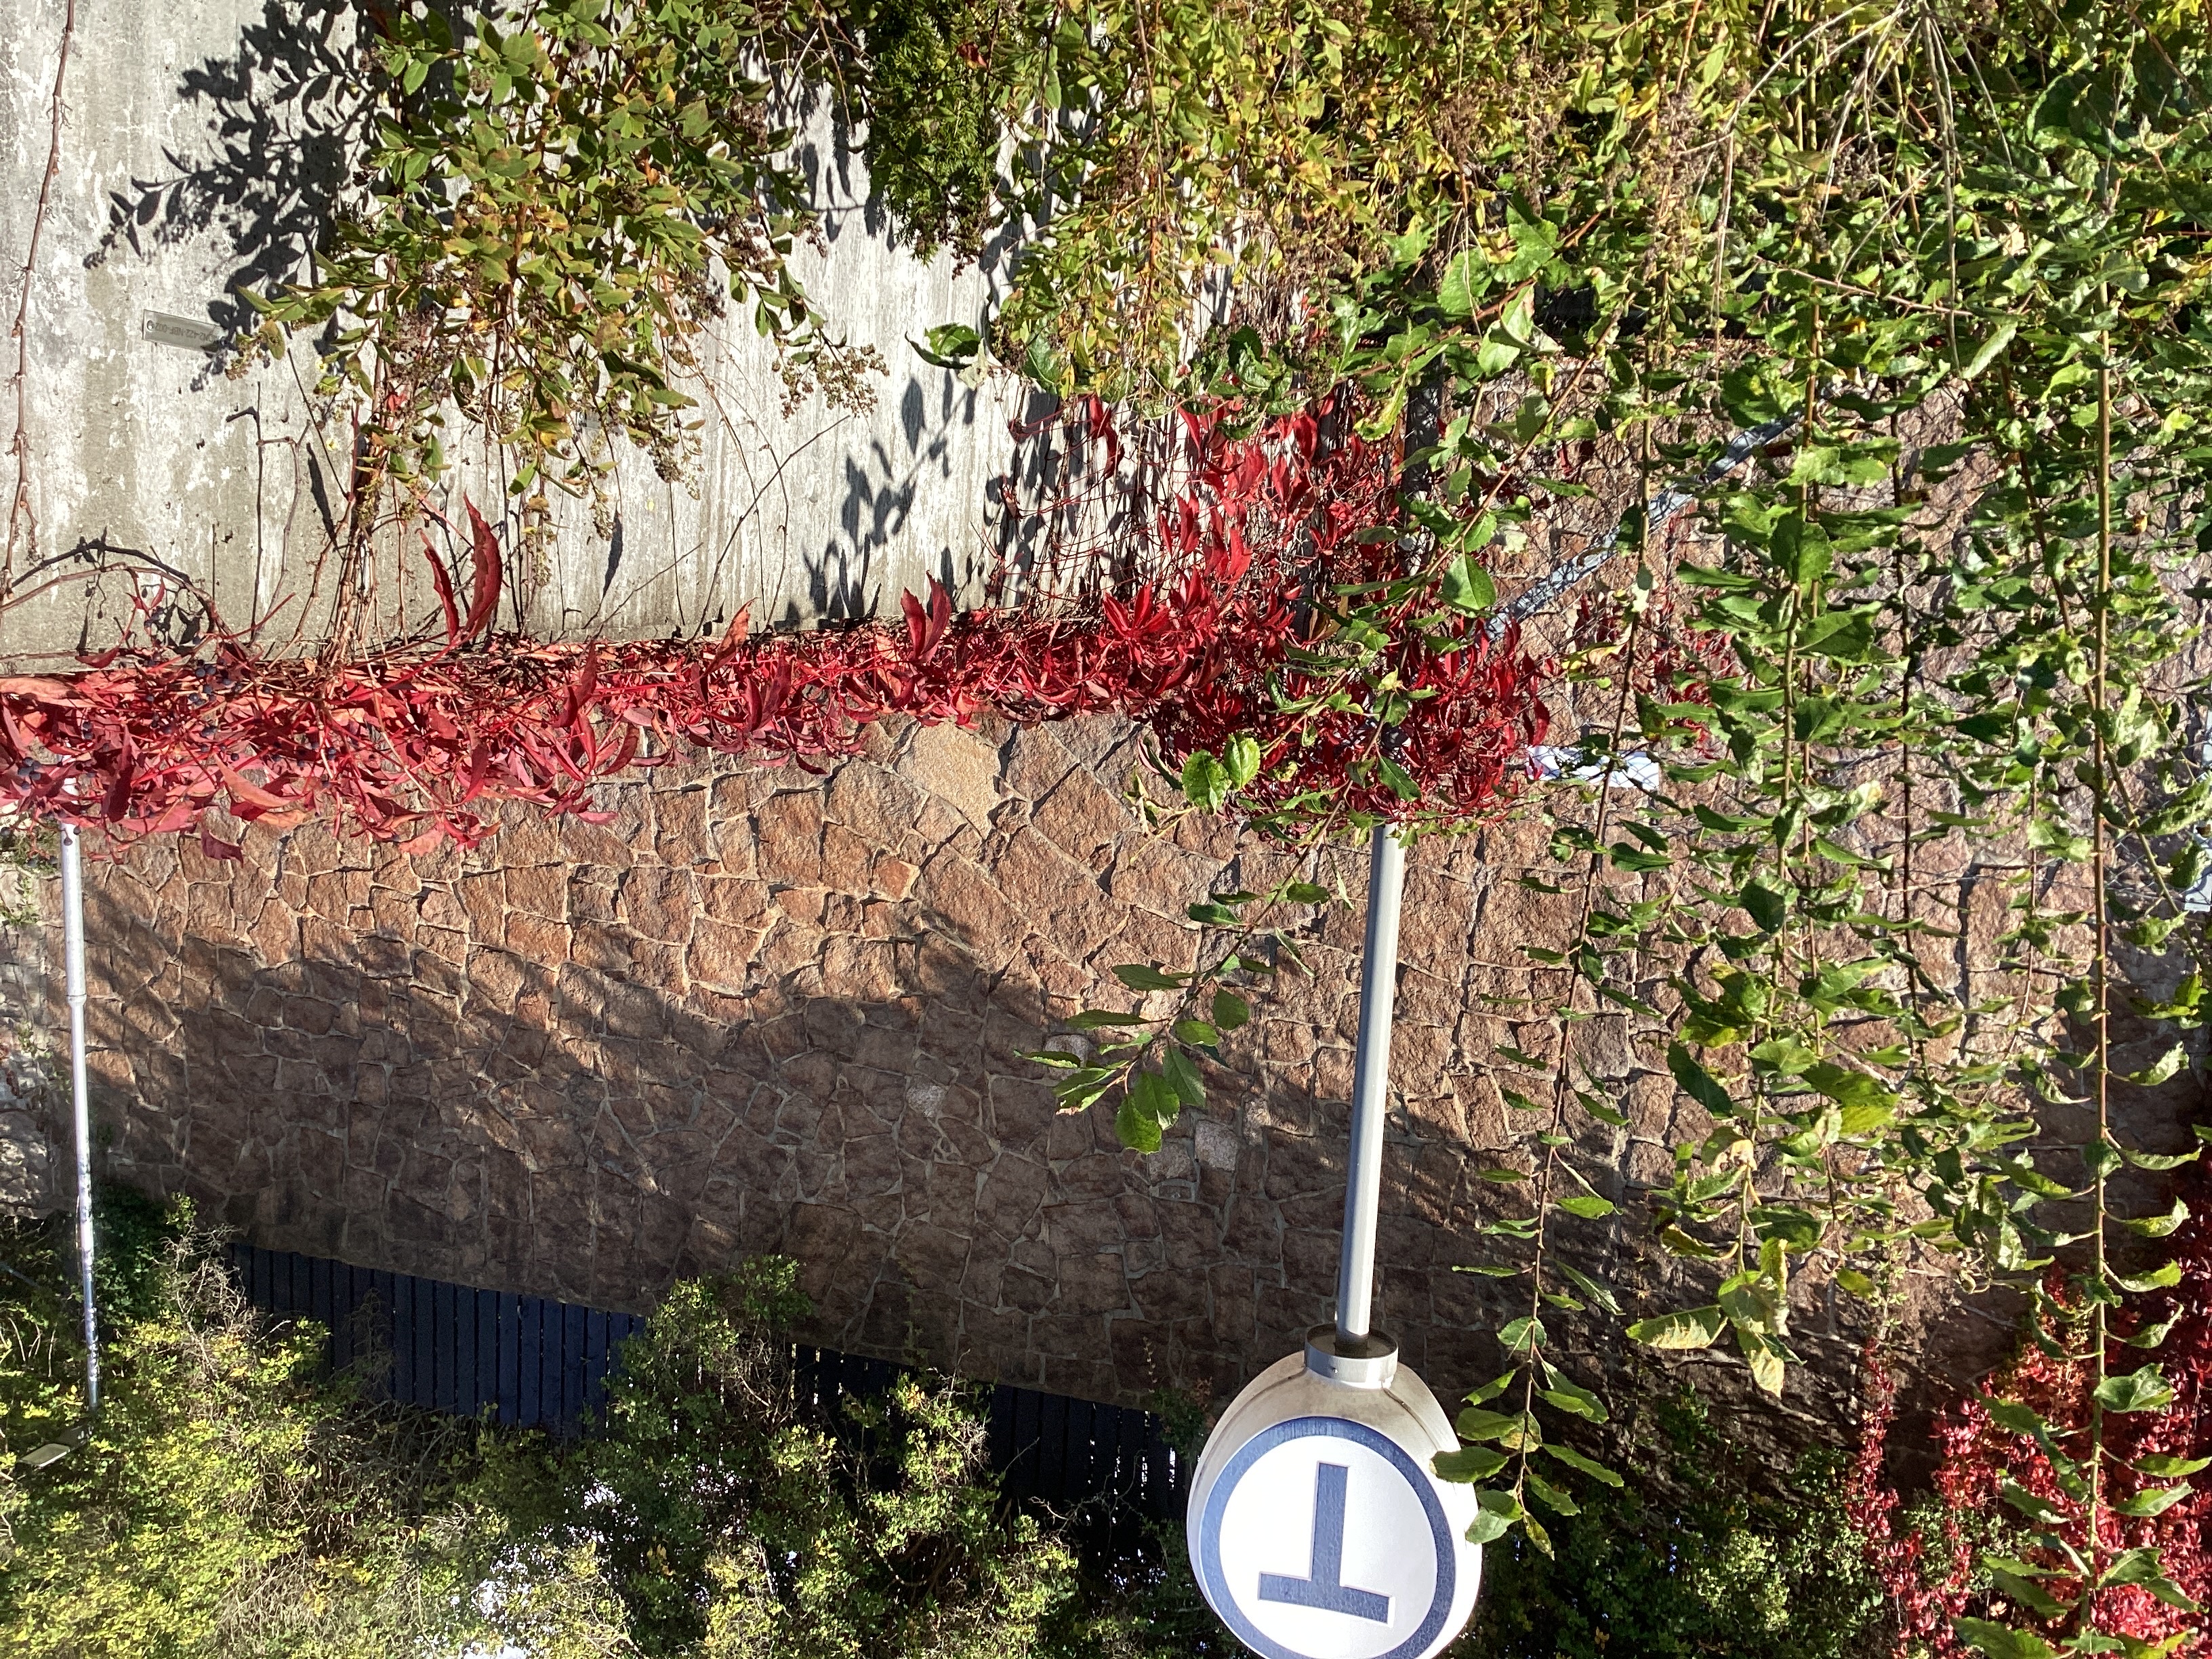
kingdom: Plantae
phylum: Tracheophyta
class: Magnoliopsida
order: Vitales
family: Vitaceae
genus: Parthenocissus
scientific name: Parthenocissus quinquefolia
